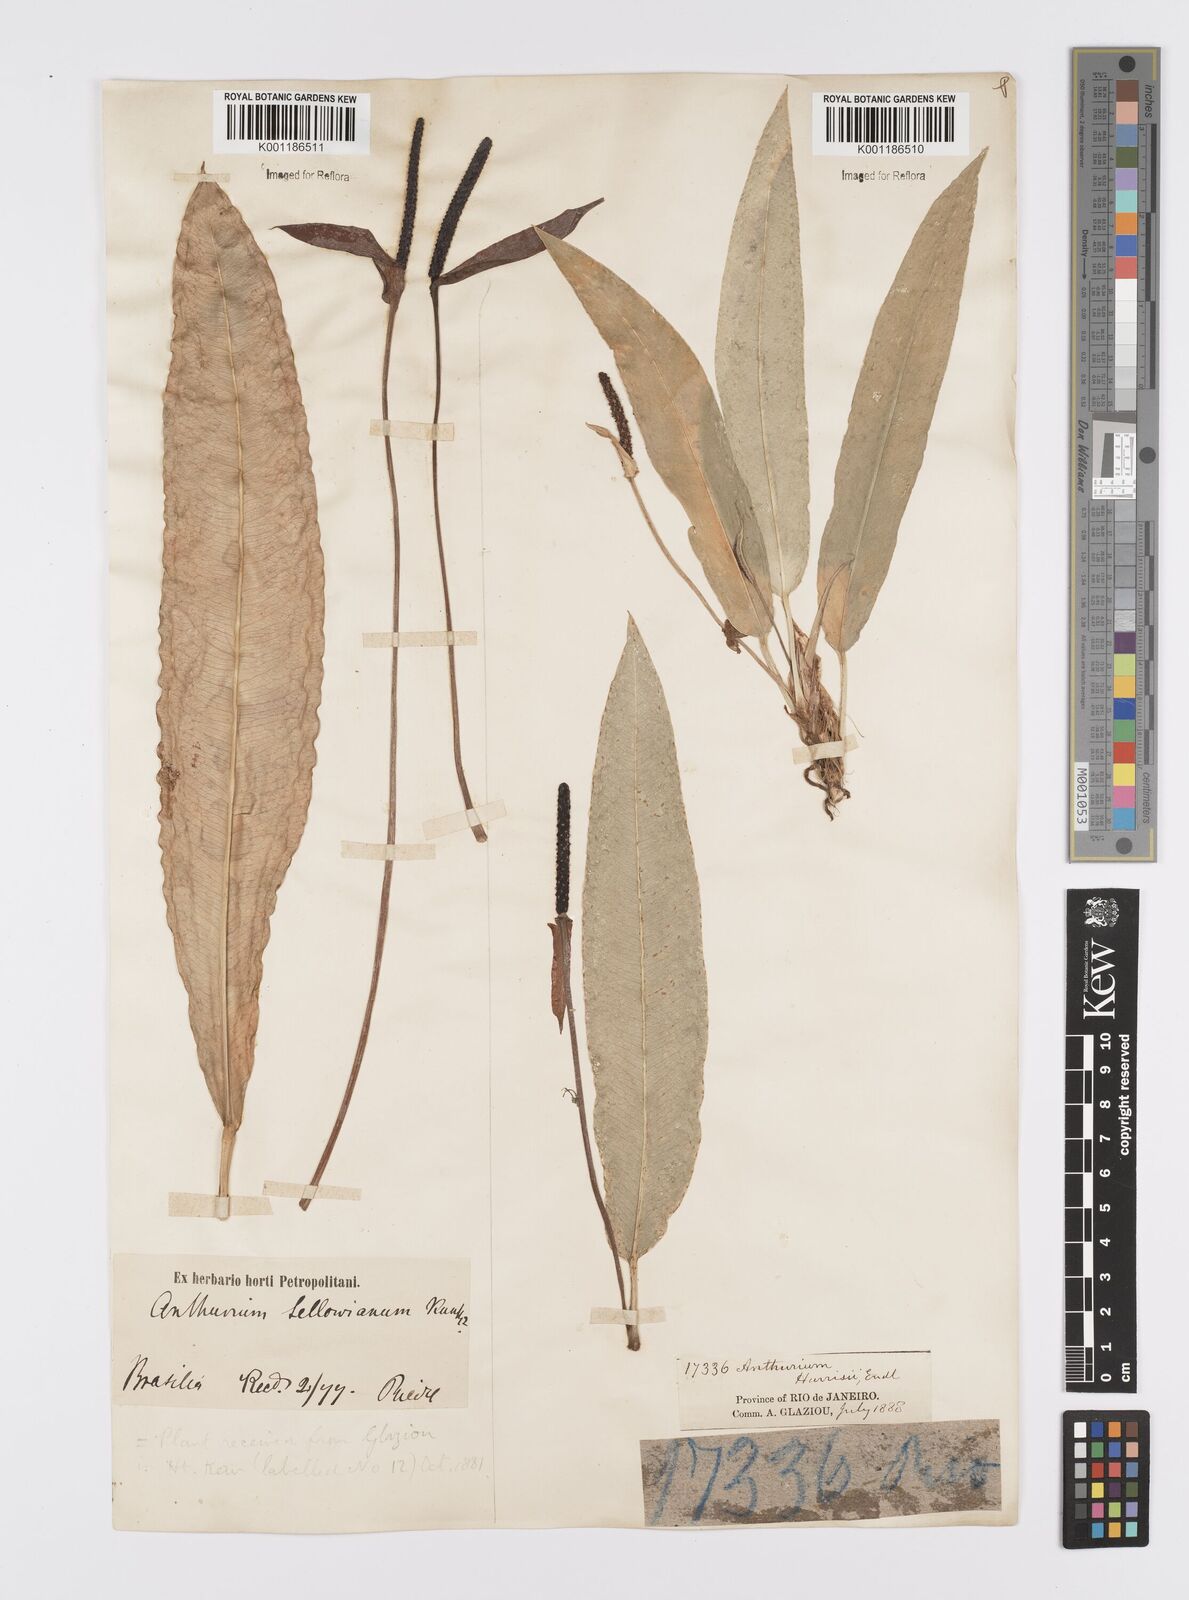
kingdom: Plantae
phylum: Tracheophyta
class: Liliopsida
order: Alismatales
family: Araceae
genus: Anthurium
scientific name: Anthurium harrisii
